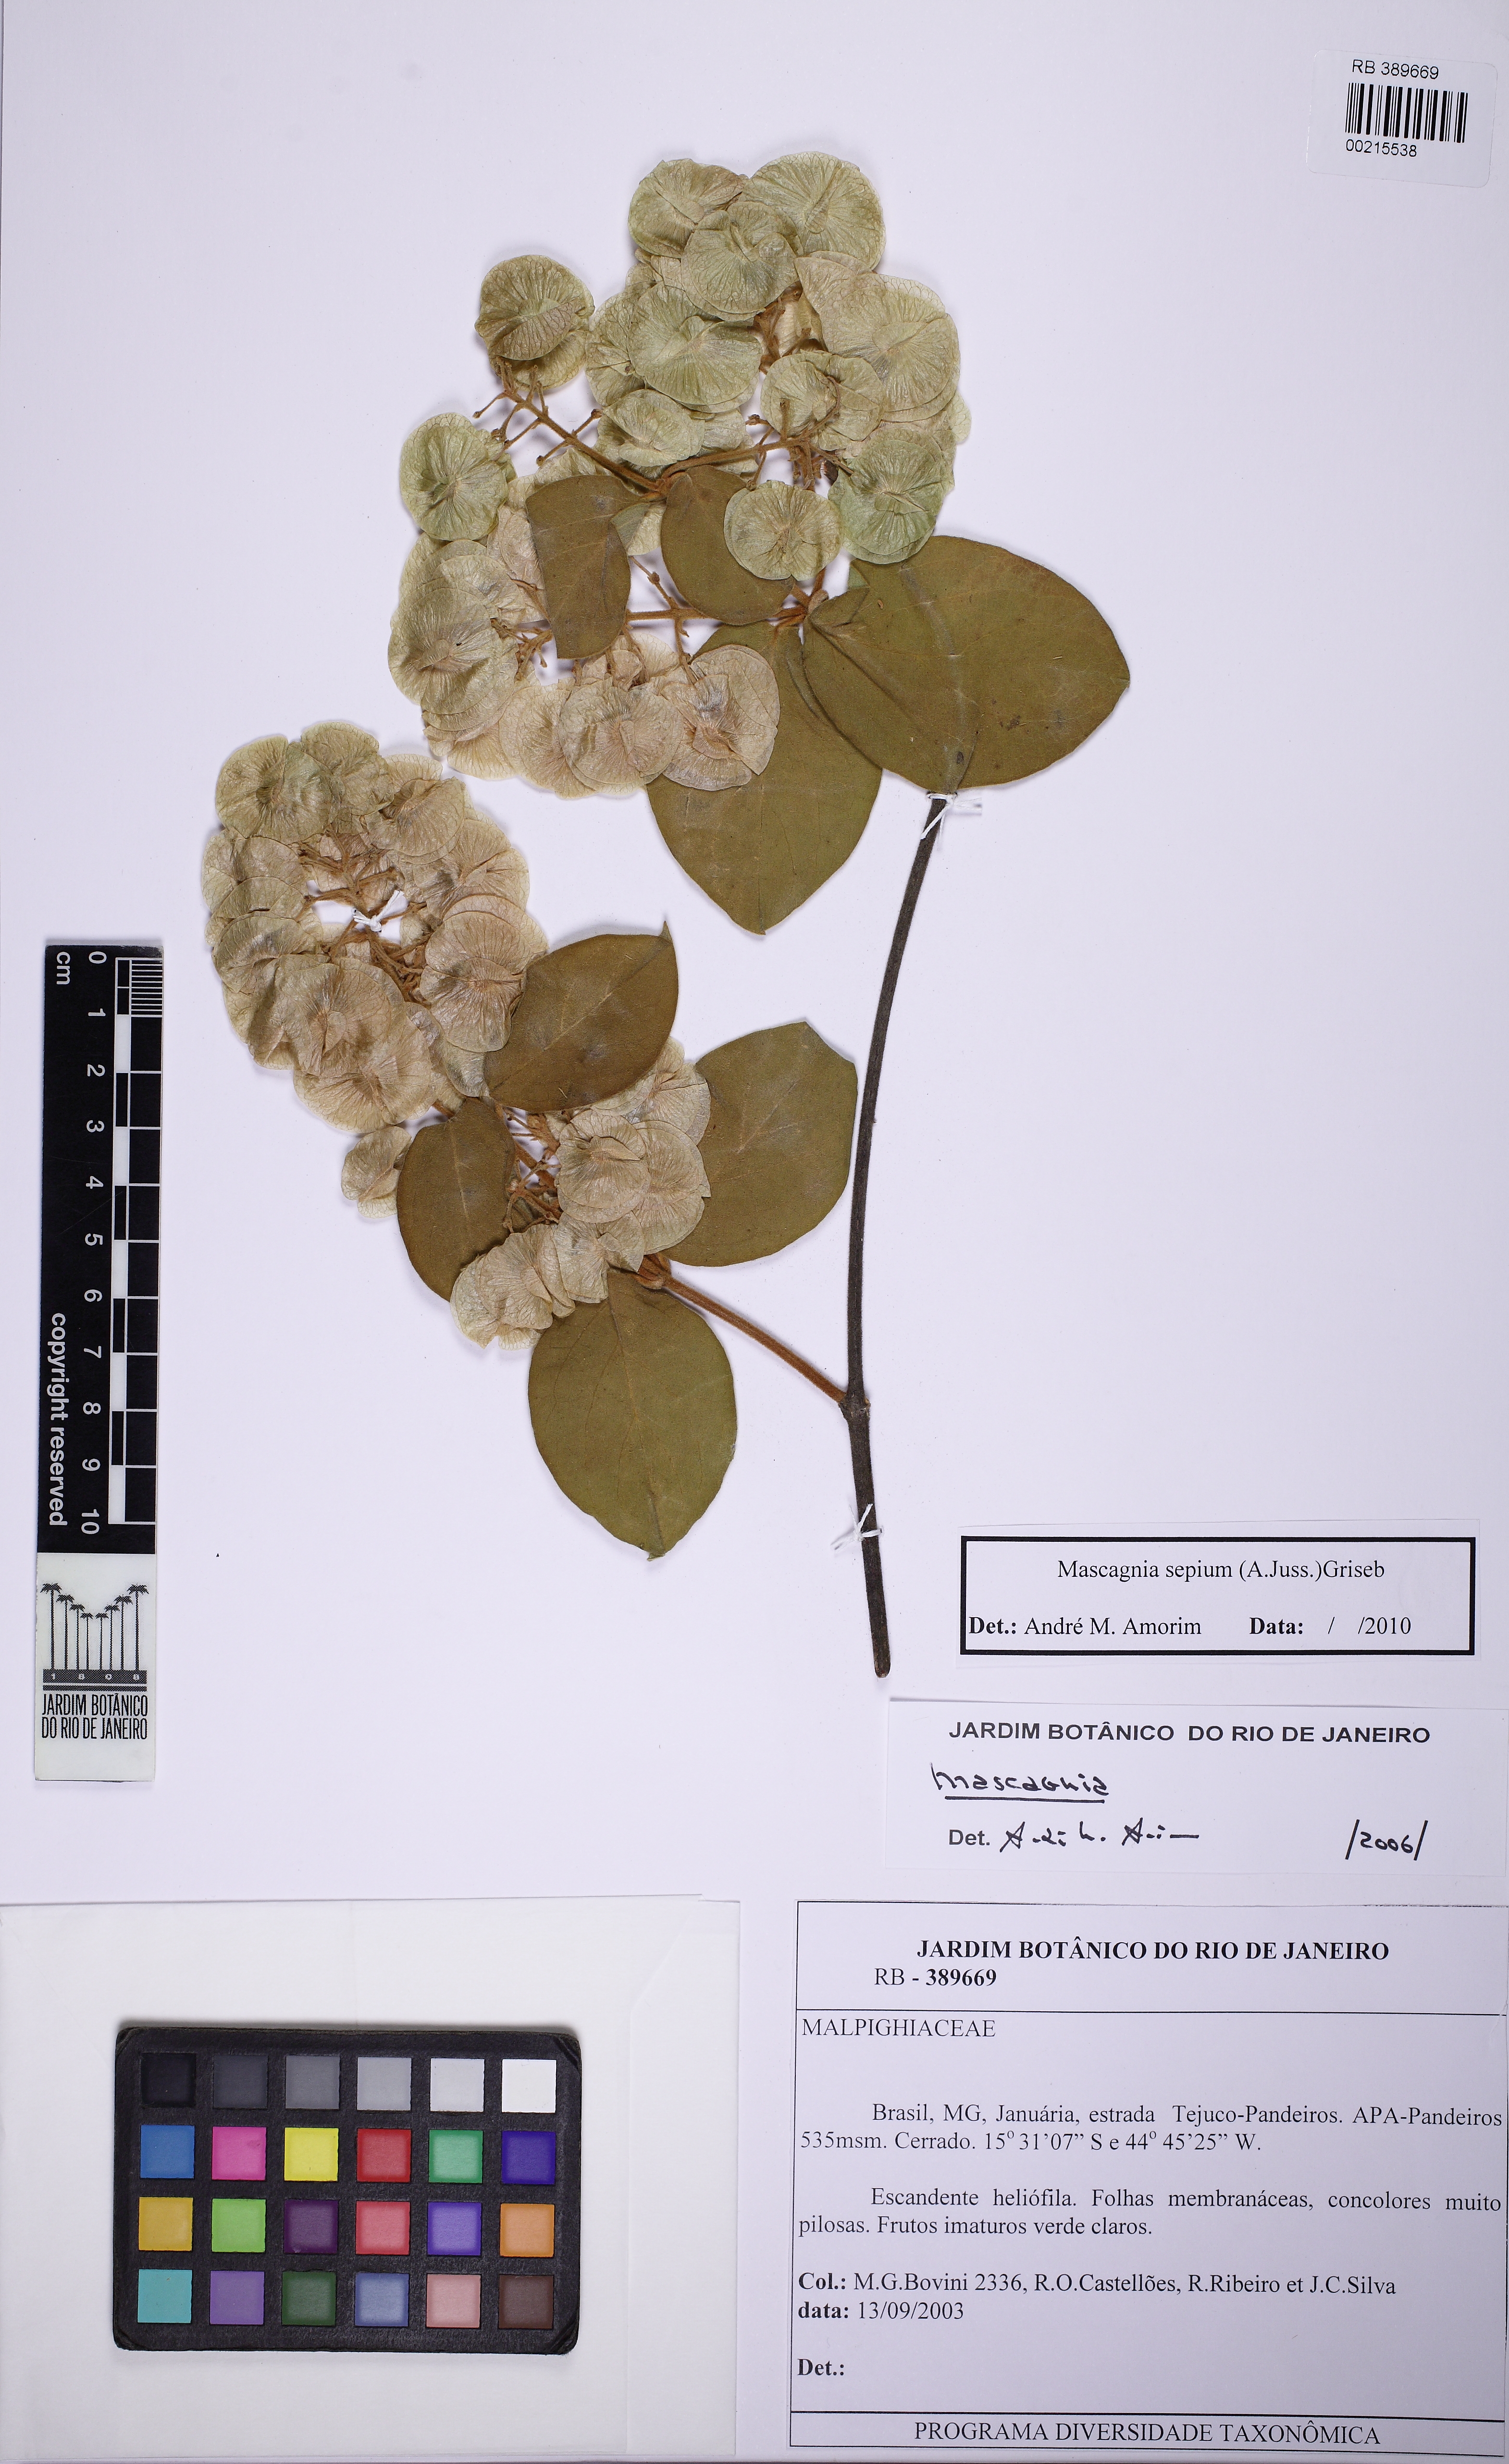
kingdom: Plantae
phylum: Tracheophyta
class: Magnoliopsida
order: Malpighiales
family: Malpighiaceae
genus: Mascagnia
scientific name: Mascagnia sepium
